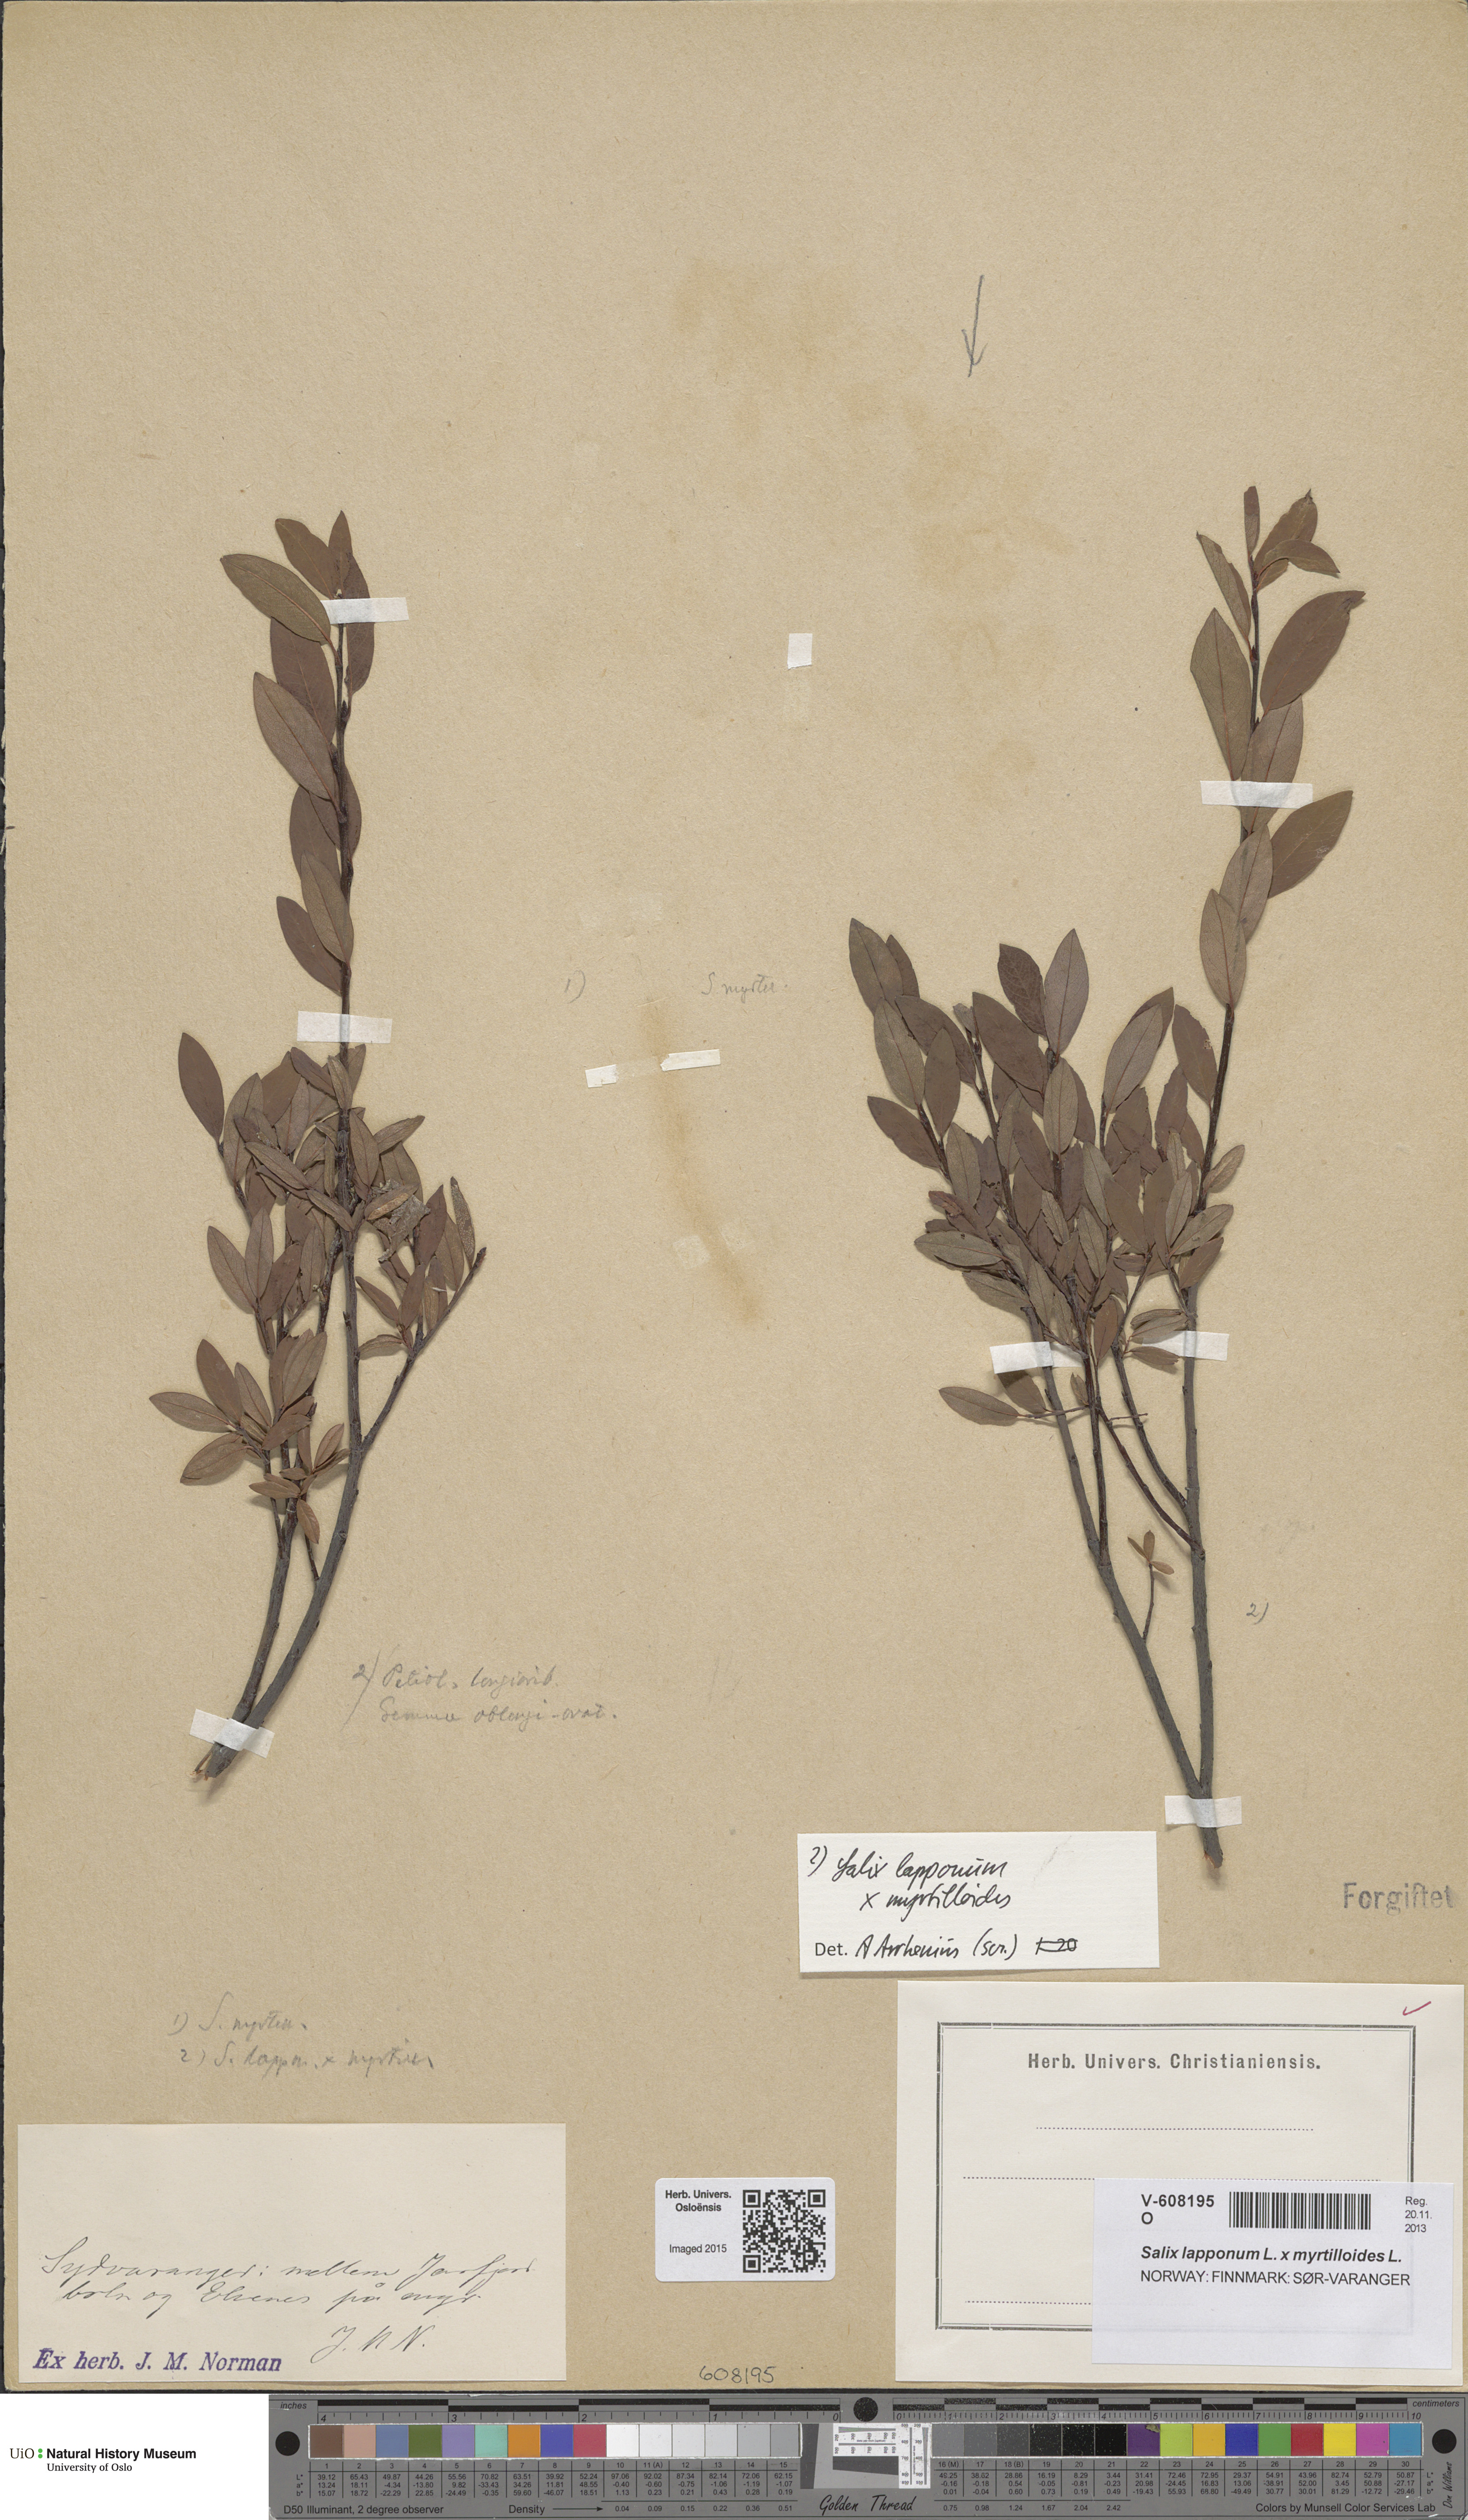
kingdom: Plantae
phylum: Tracheophyta
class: Magnoliopsida
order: Malpighiales
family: Salicaceae
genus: Salix
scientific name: Salix
